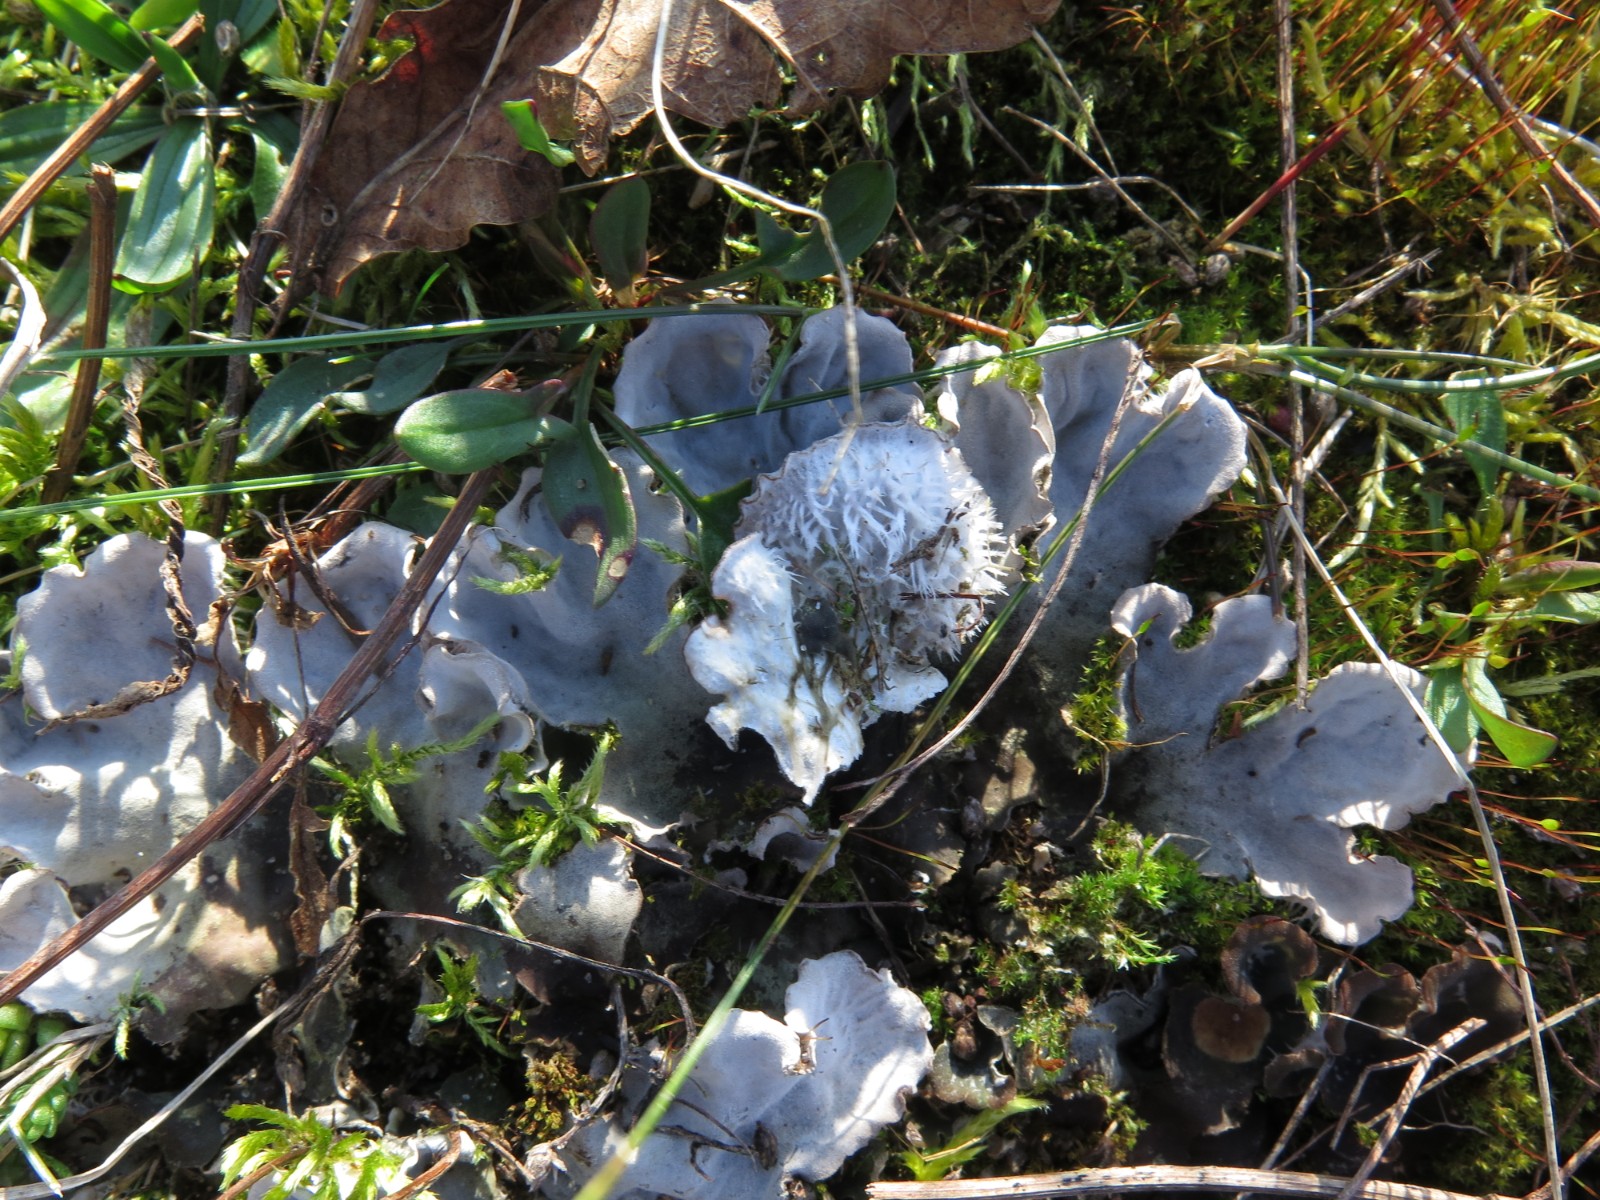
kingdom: Fungi
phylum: Ascomycota
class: Lecanoromycetes
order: Peltigerales
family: Peltigeraceae
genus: Peltigera
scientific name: Peltigera canina
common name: hunde-skjoldlav
